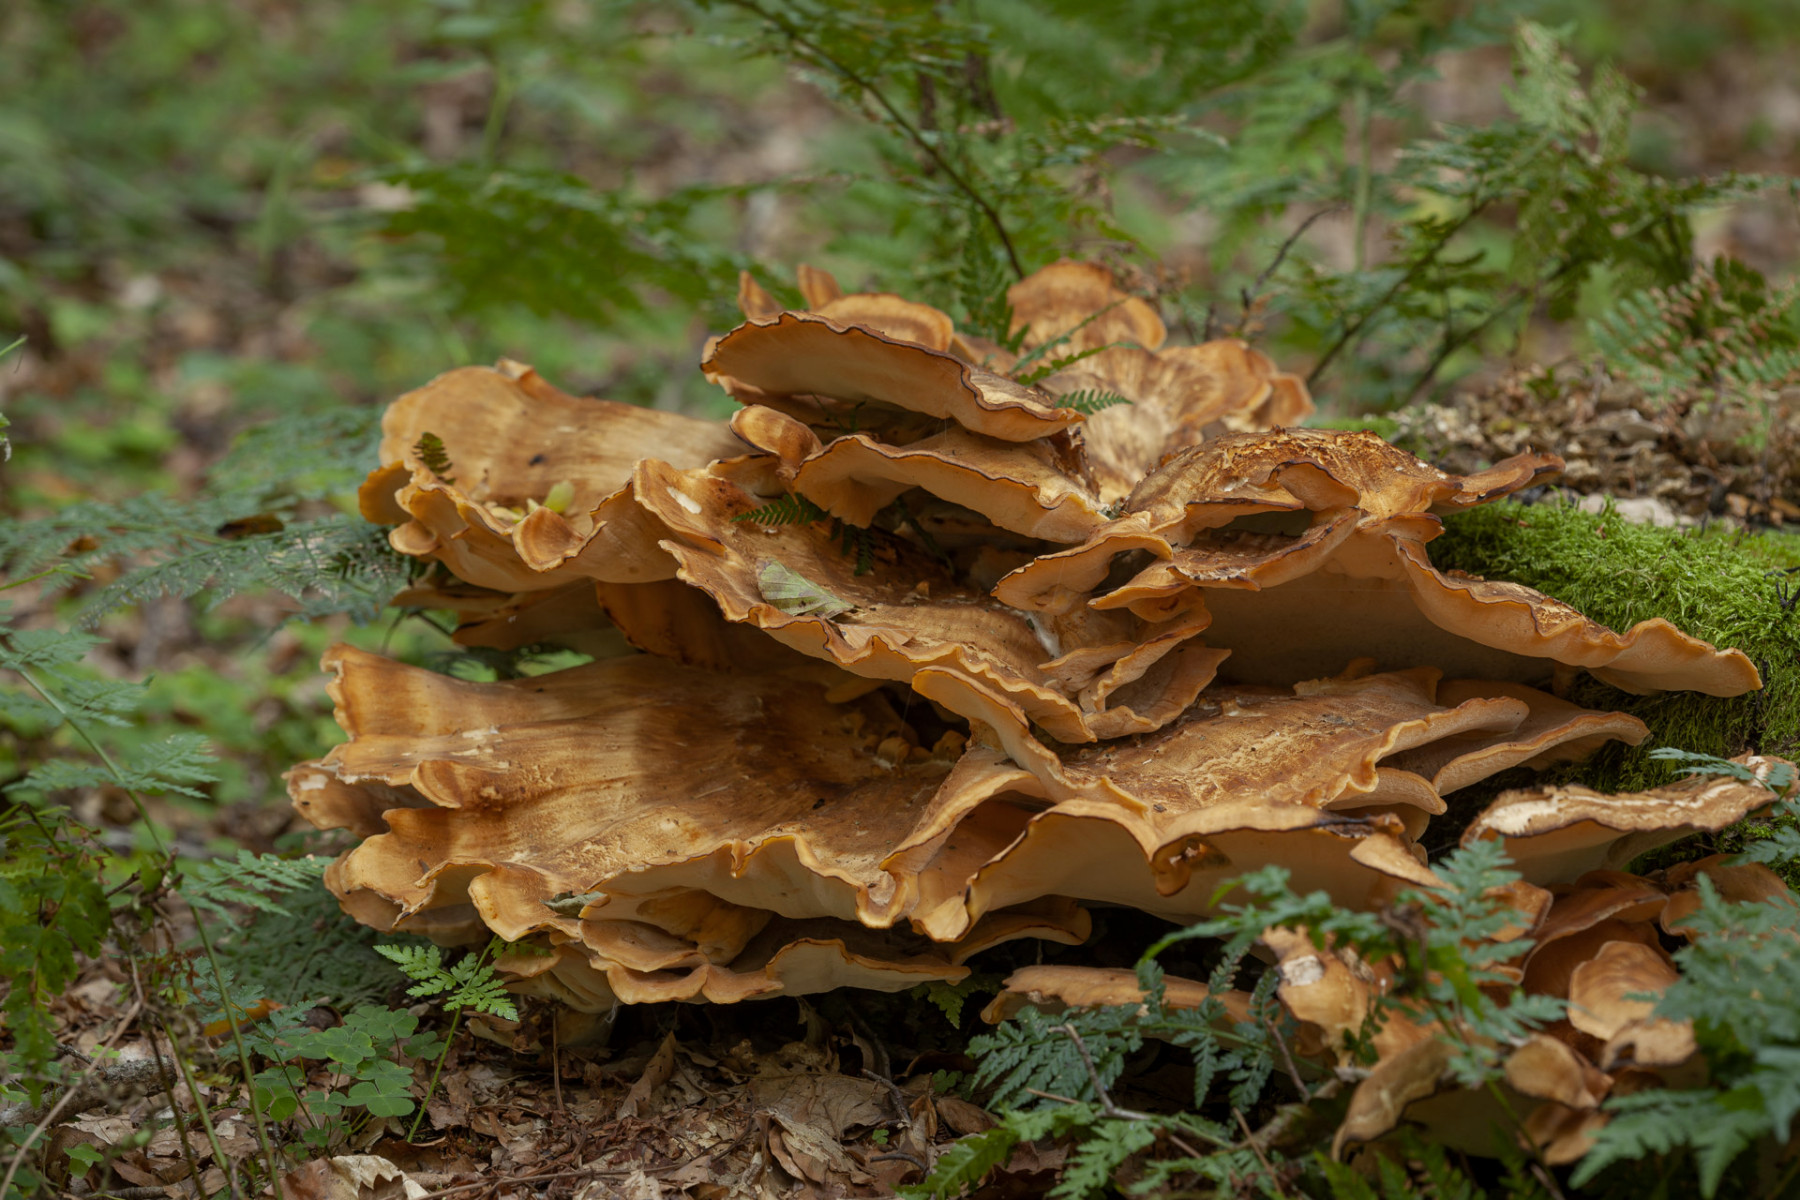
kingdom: Fungi
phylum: Basidiomycota
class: Agaricomycetes
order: Polyporales
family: Meripilaceae
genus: Meripilus
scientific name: Meripilus giganteus
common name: kæmpeporesvamp
